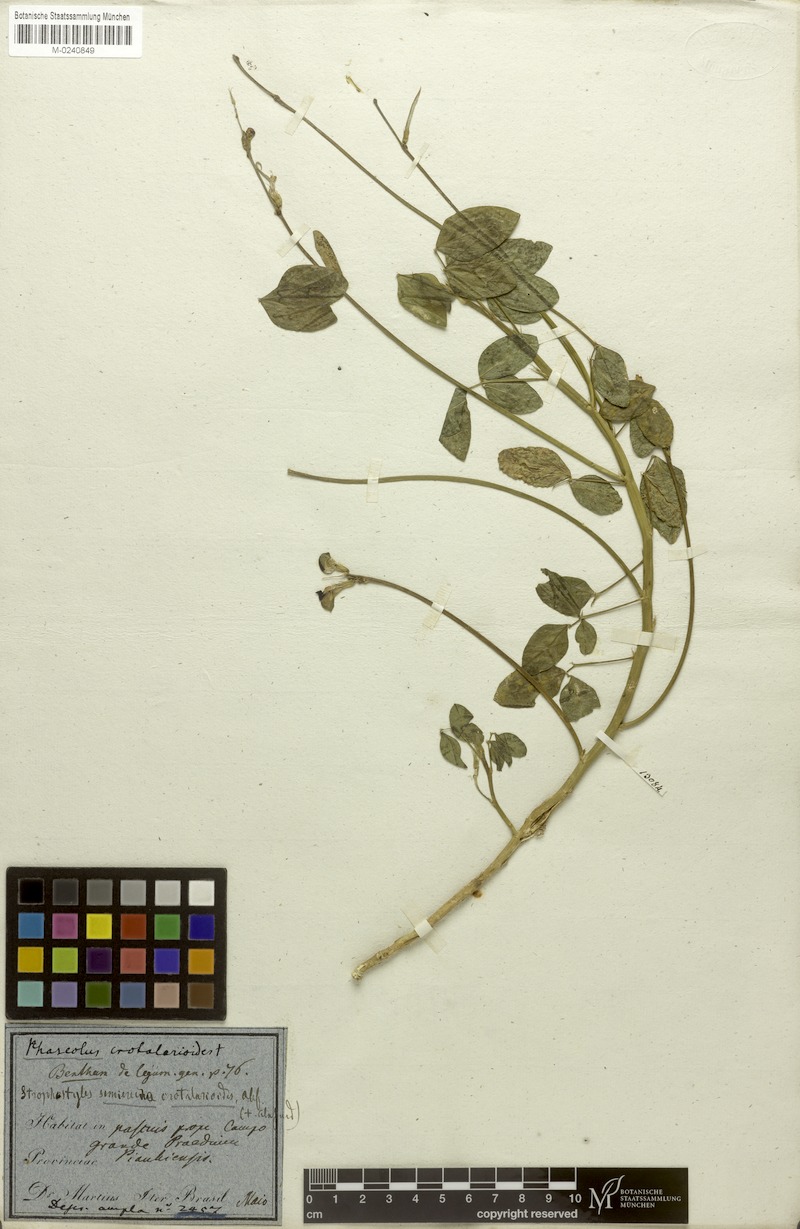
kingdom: Plantae
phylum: Tracheophyta
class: Magnoliopsida
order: Fabales
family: Fabaceae
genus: Macroptilium
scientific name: Macroptilium lathyroides
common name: Wild bushbean
